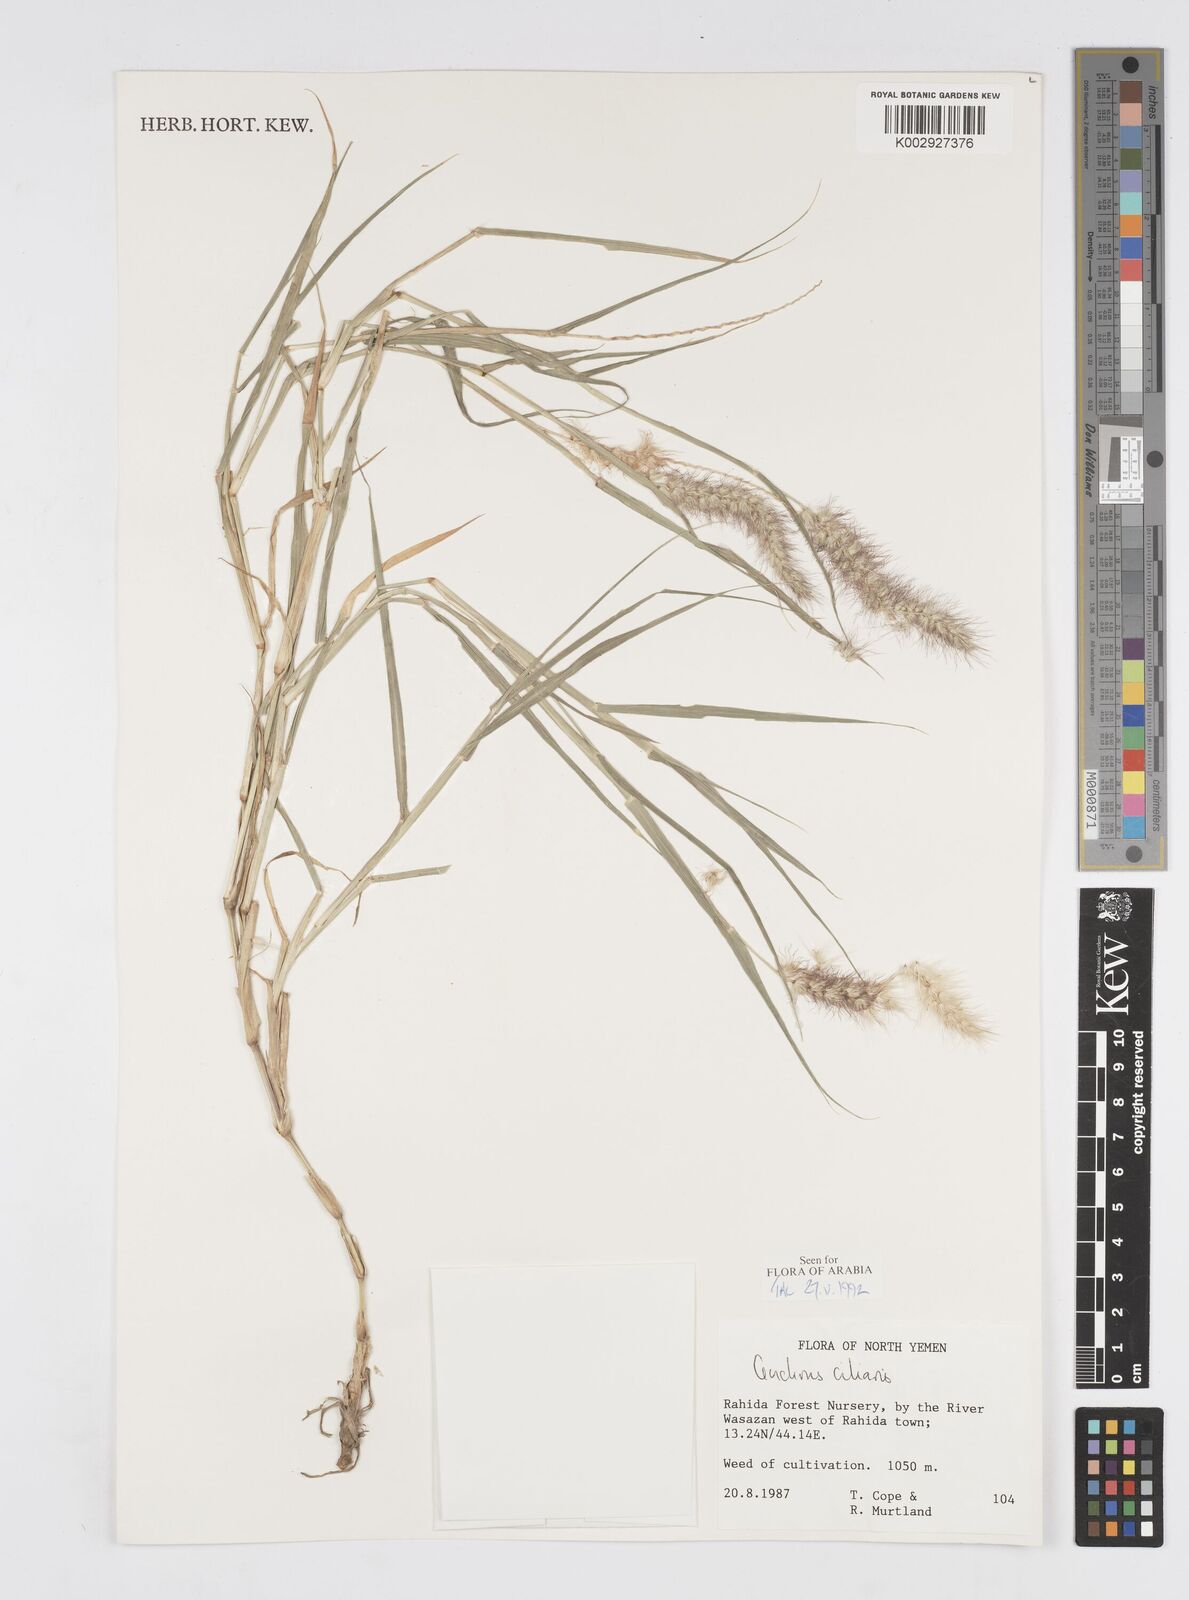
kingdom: Plantae
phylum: Tracheophyta
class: Liliopsida
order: Poales
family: Poaceae
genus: Cenchrus
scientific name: Cenchrus ciliaris
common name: Buffelgrass
